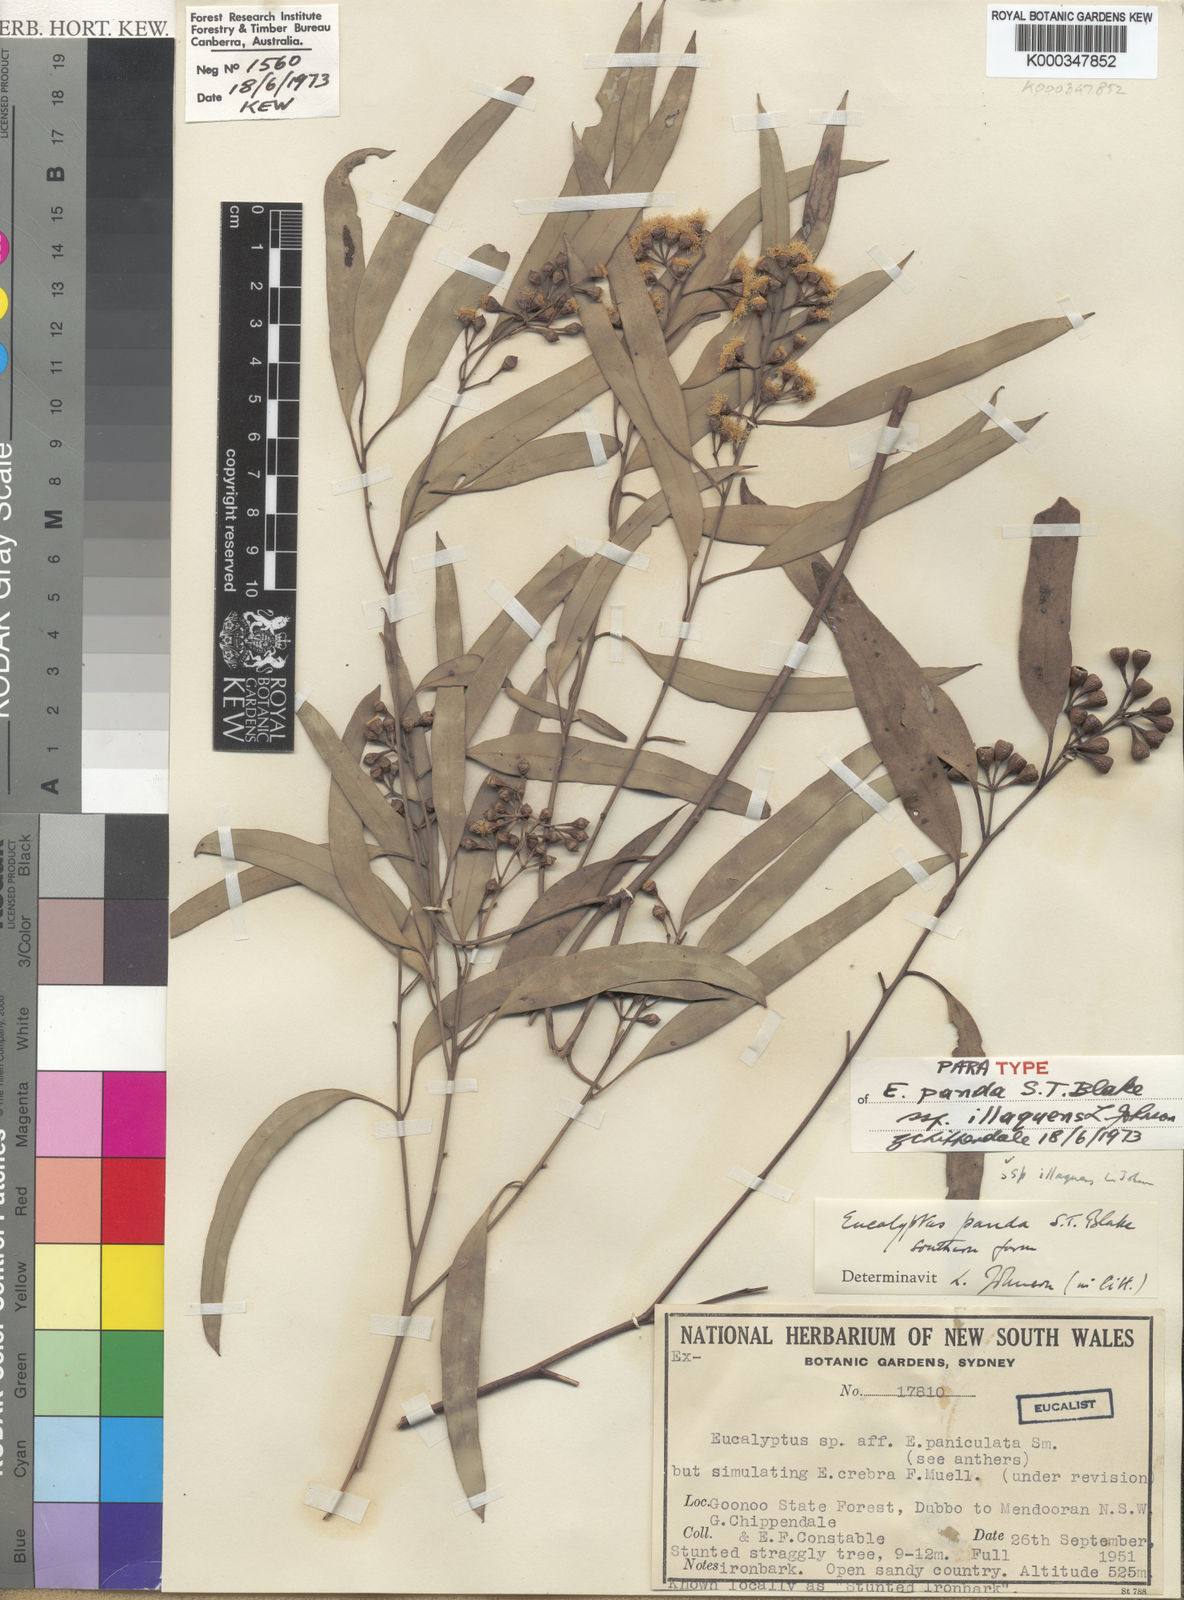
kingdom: Plantae
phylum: Tracheophyta
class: Magnoliopsida
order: Myrtales
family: Myrtaceae
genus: Eucalyptus
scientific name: Eucalyptus beyeri
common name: Beyer's ironbark
